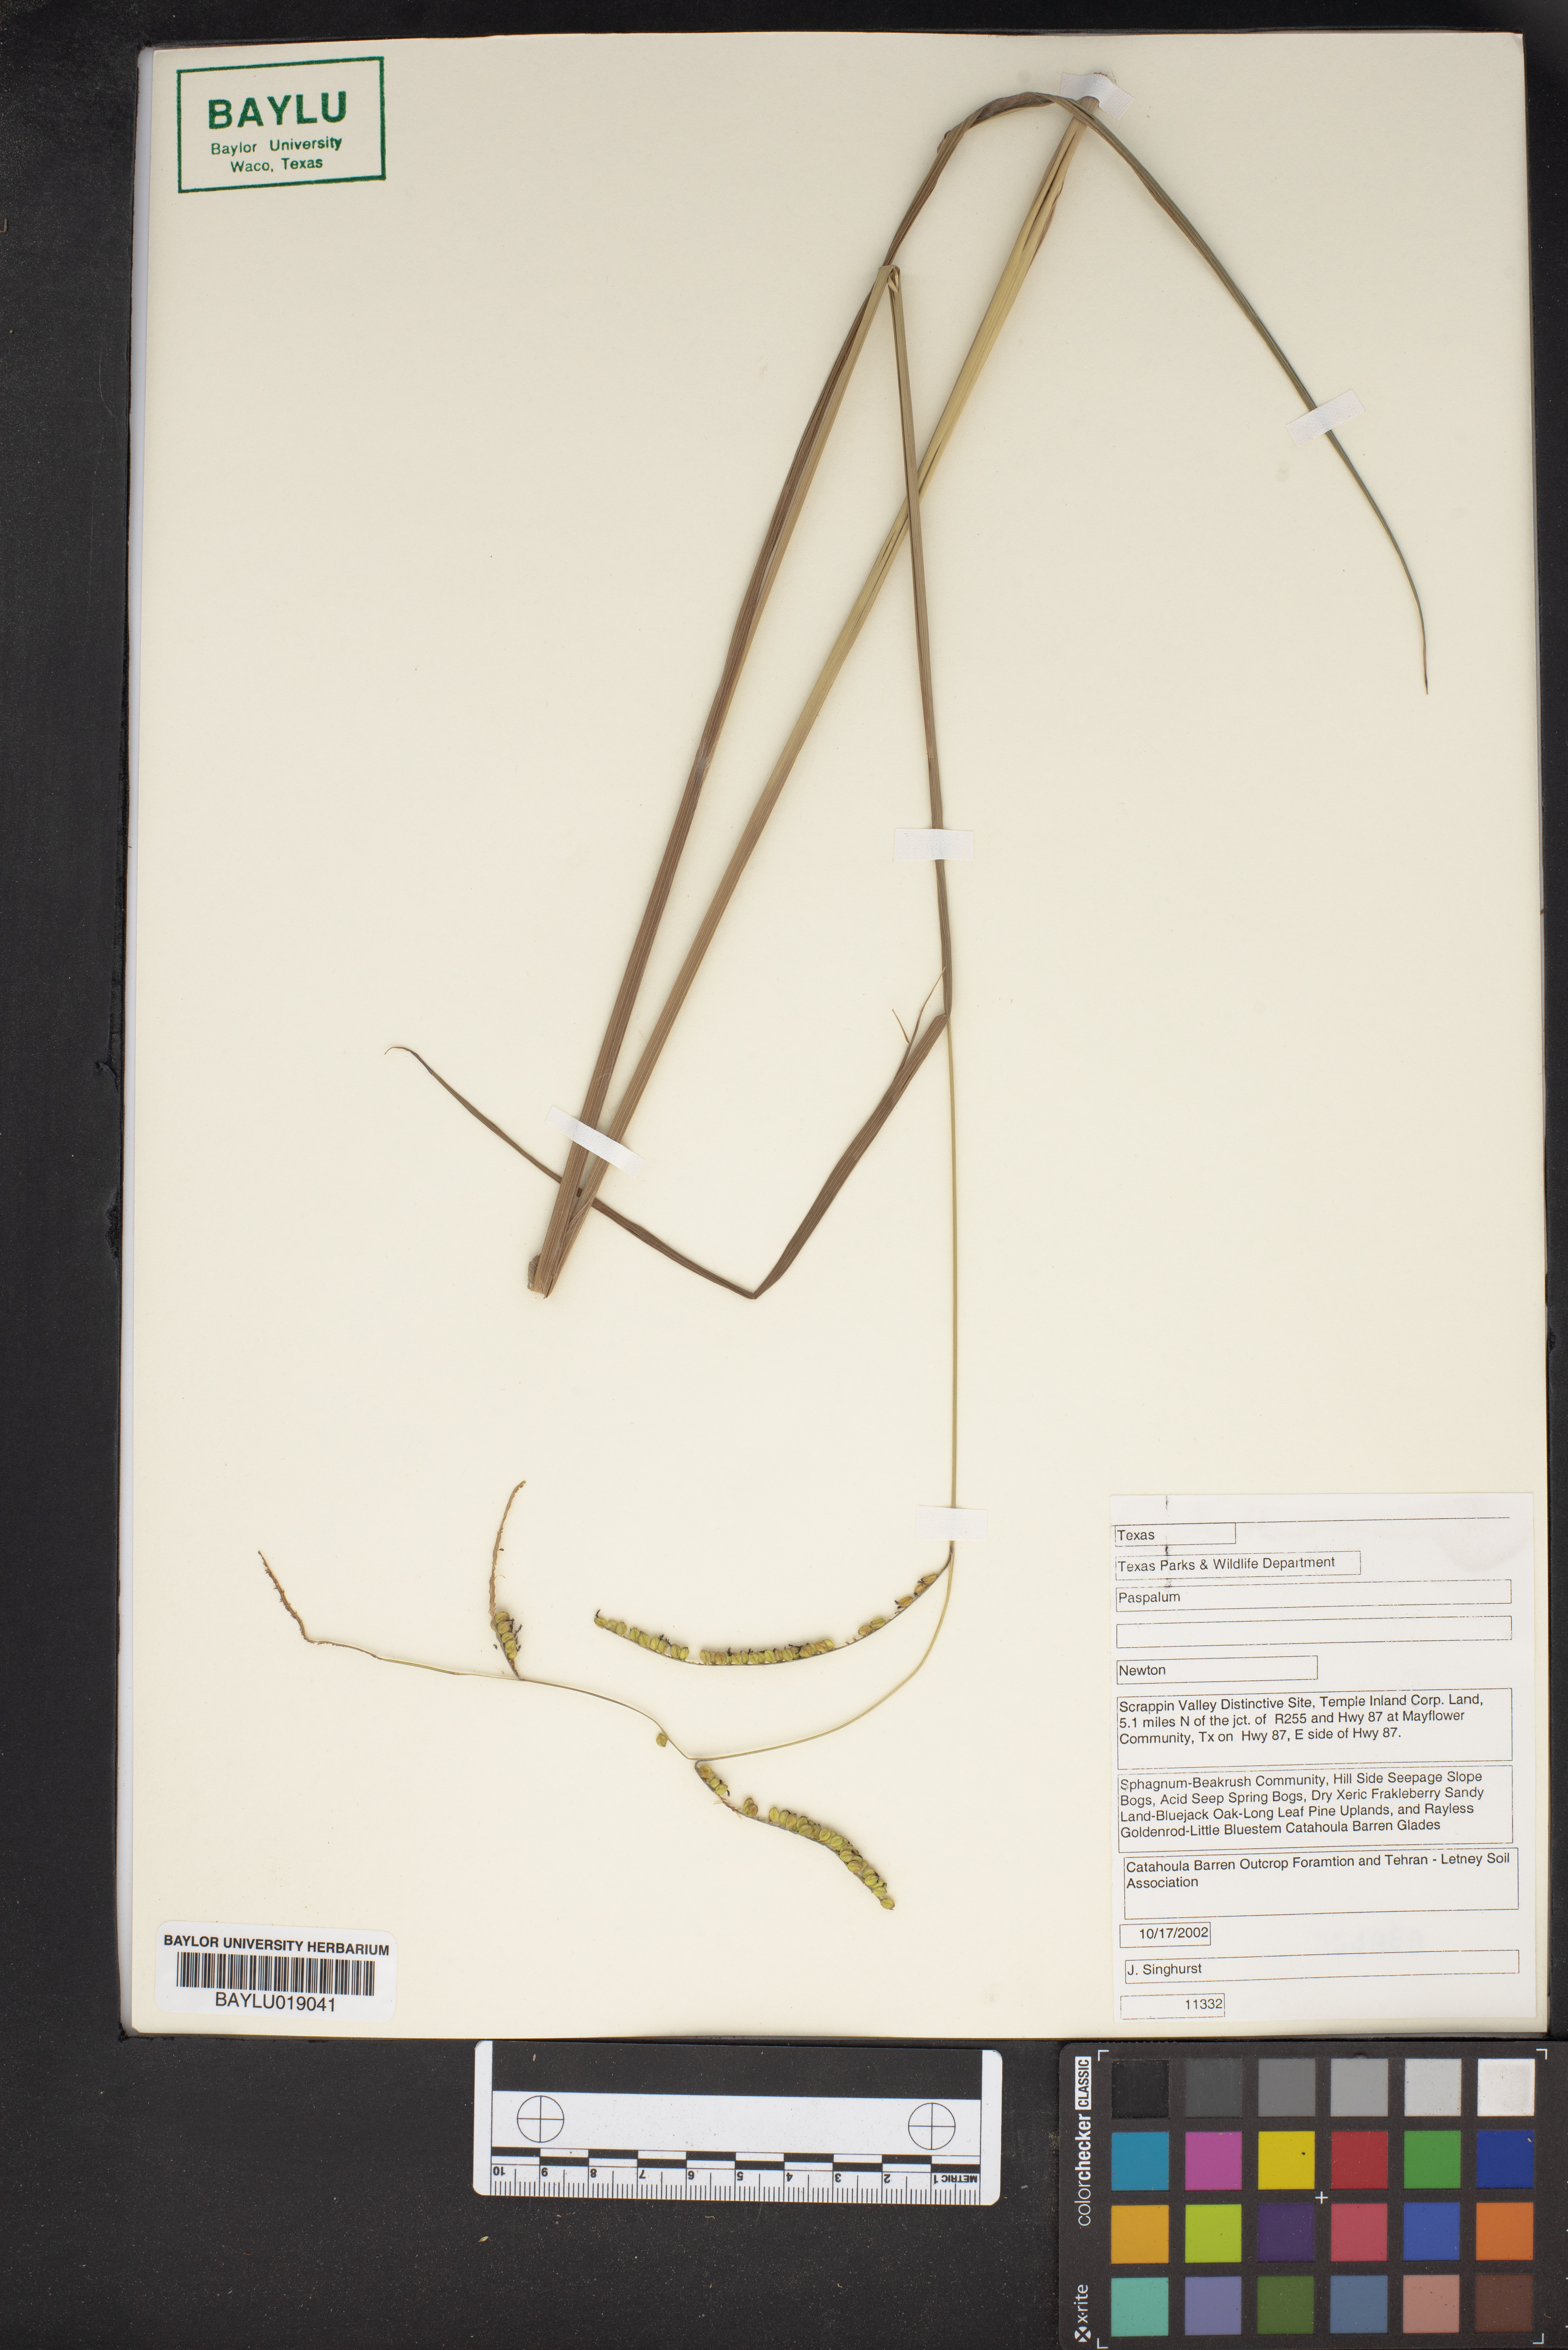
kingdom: Plantae
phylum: Tracheophyta
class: Liliopsida
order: Poales
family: Poaceae
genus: Paspalum
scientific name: Paspalum
